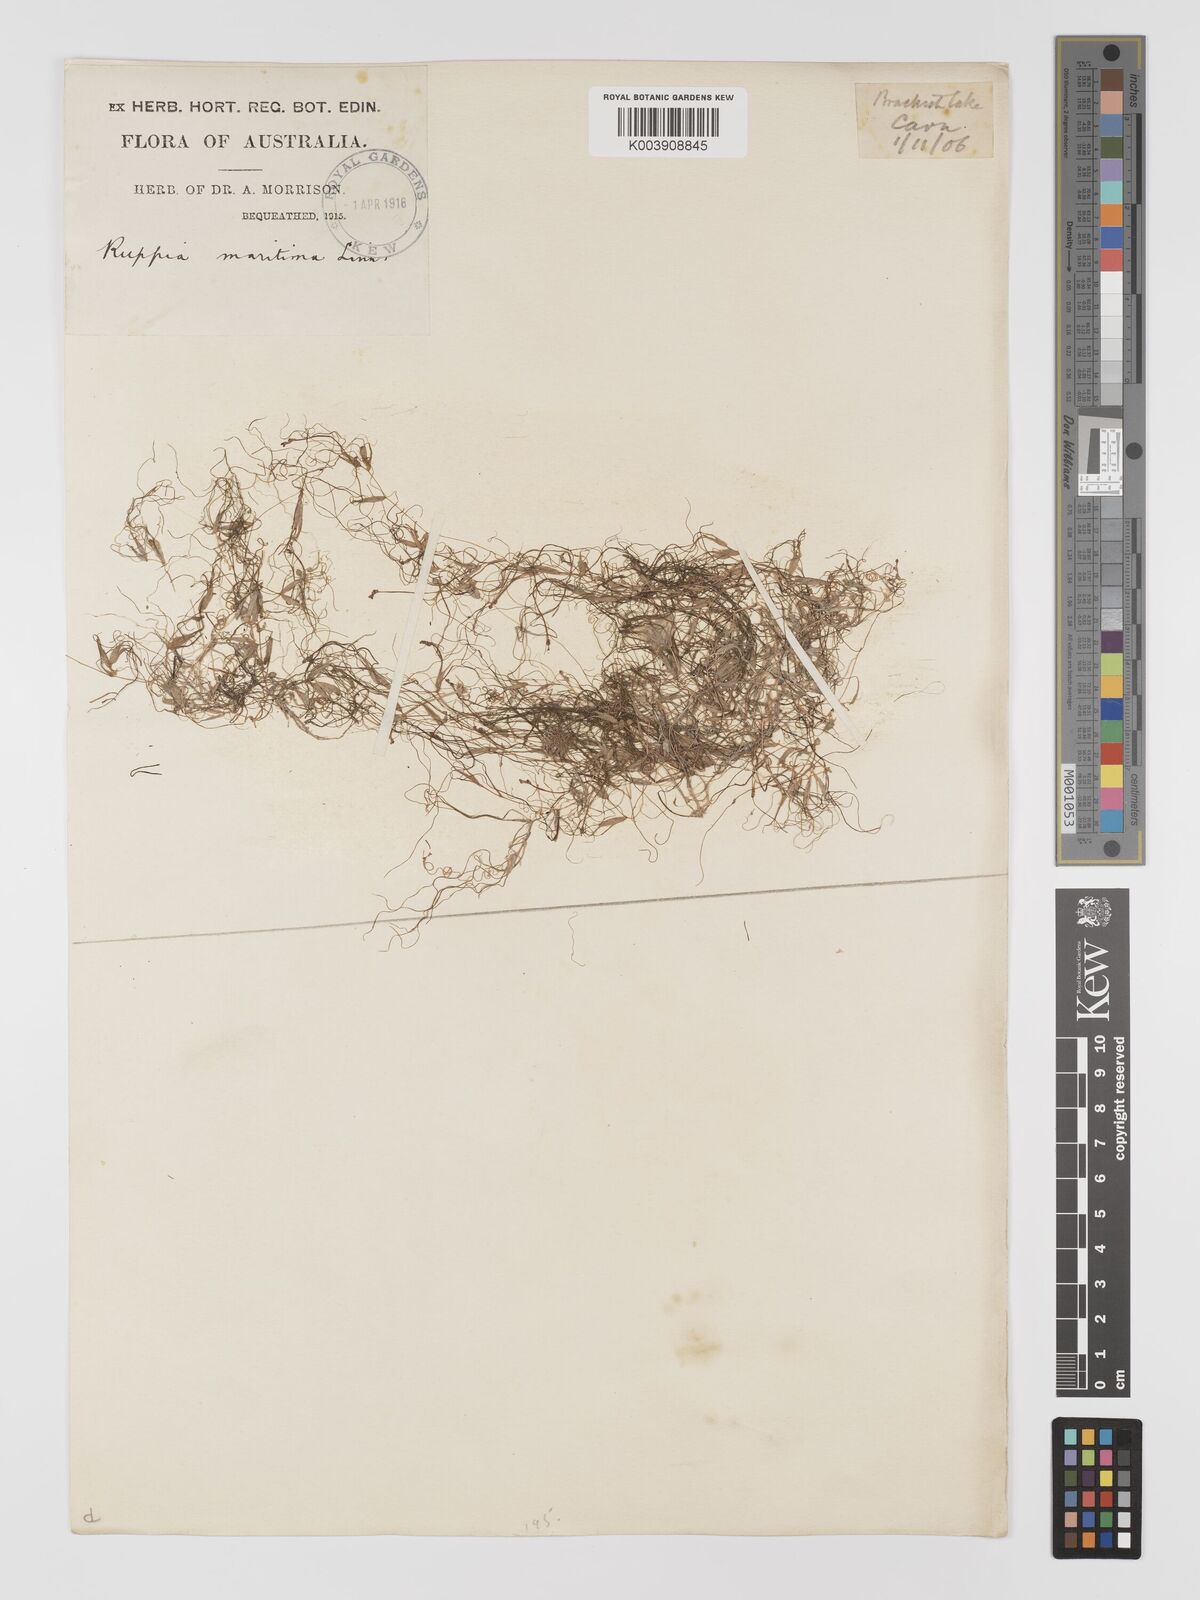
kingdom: Plantae
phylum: Tracheophyta
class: Liliopsida
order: Alismatales
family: Ruppiaceae
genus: Ruppia
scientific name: Ruppia maritima
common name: Beaked tasselweed
